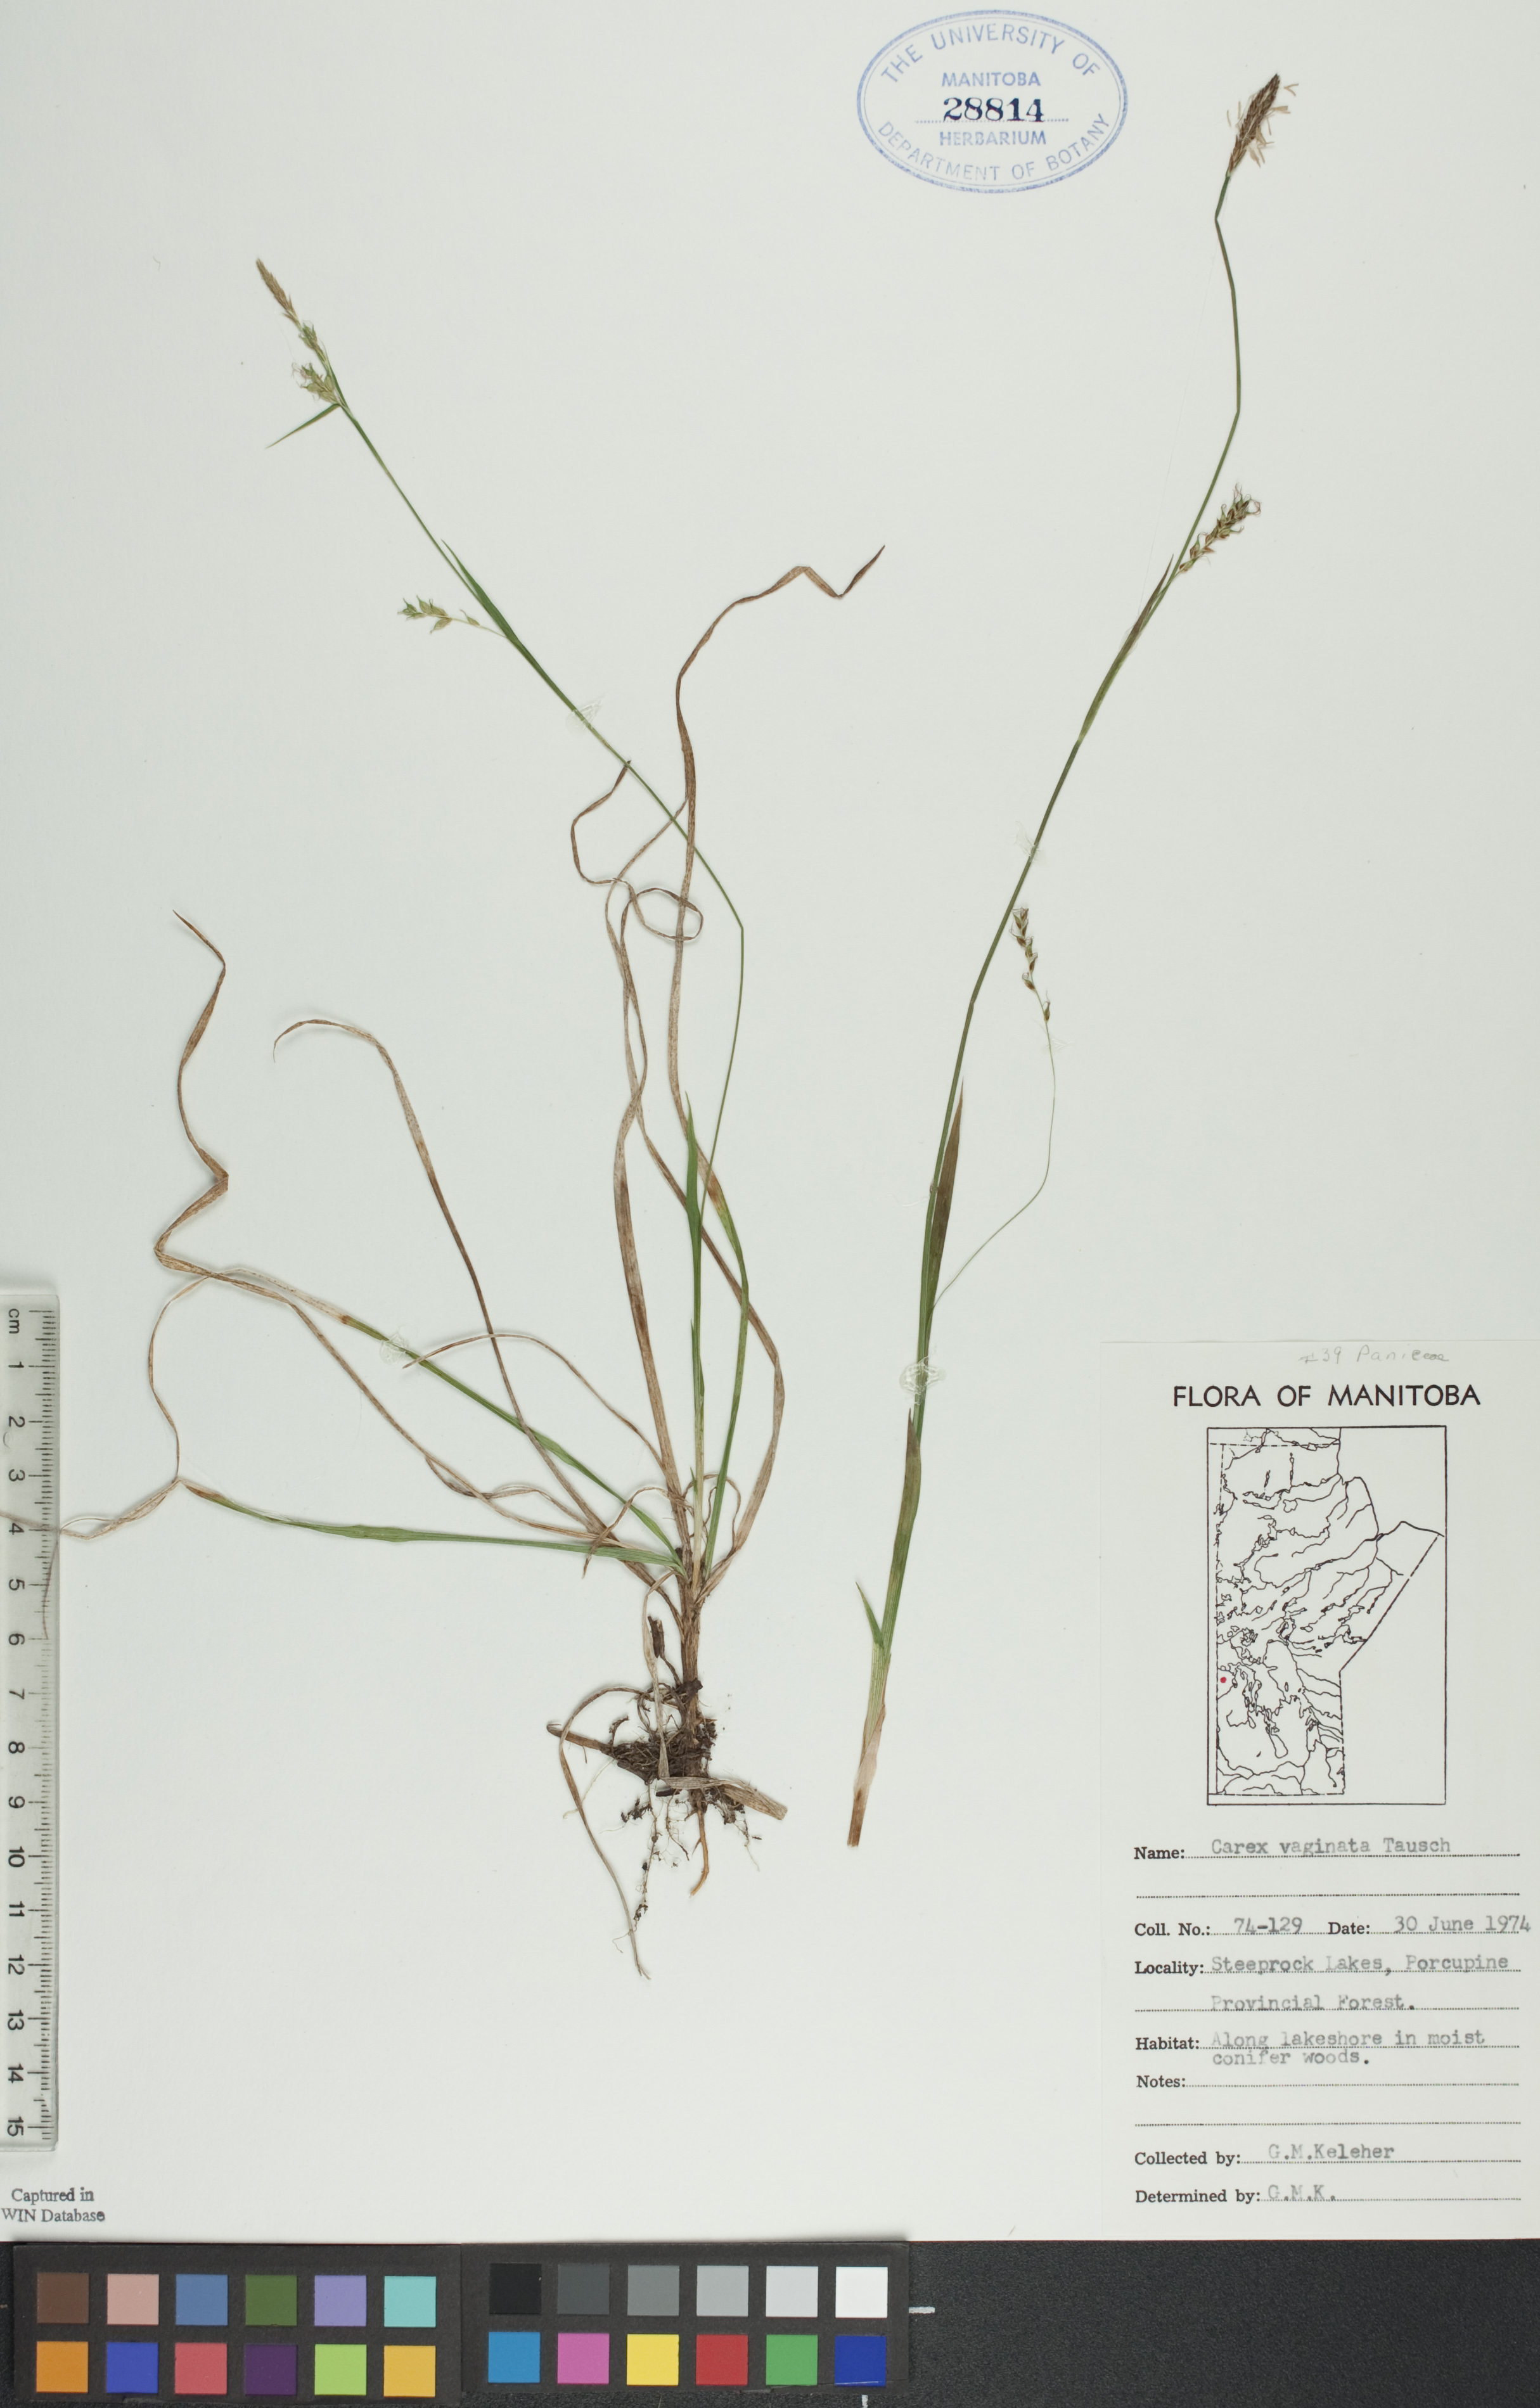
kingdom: Plantae
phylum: Tracheophyta
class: Liliopsida
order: Poales
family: Cyperaceae
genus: Carex
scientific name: Carex vaginata
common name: Sheathed sedge
